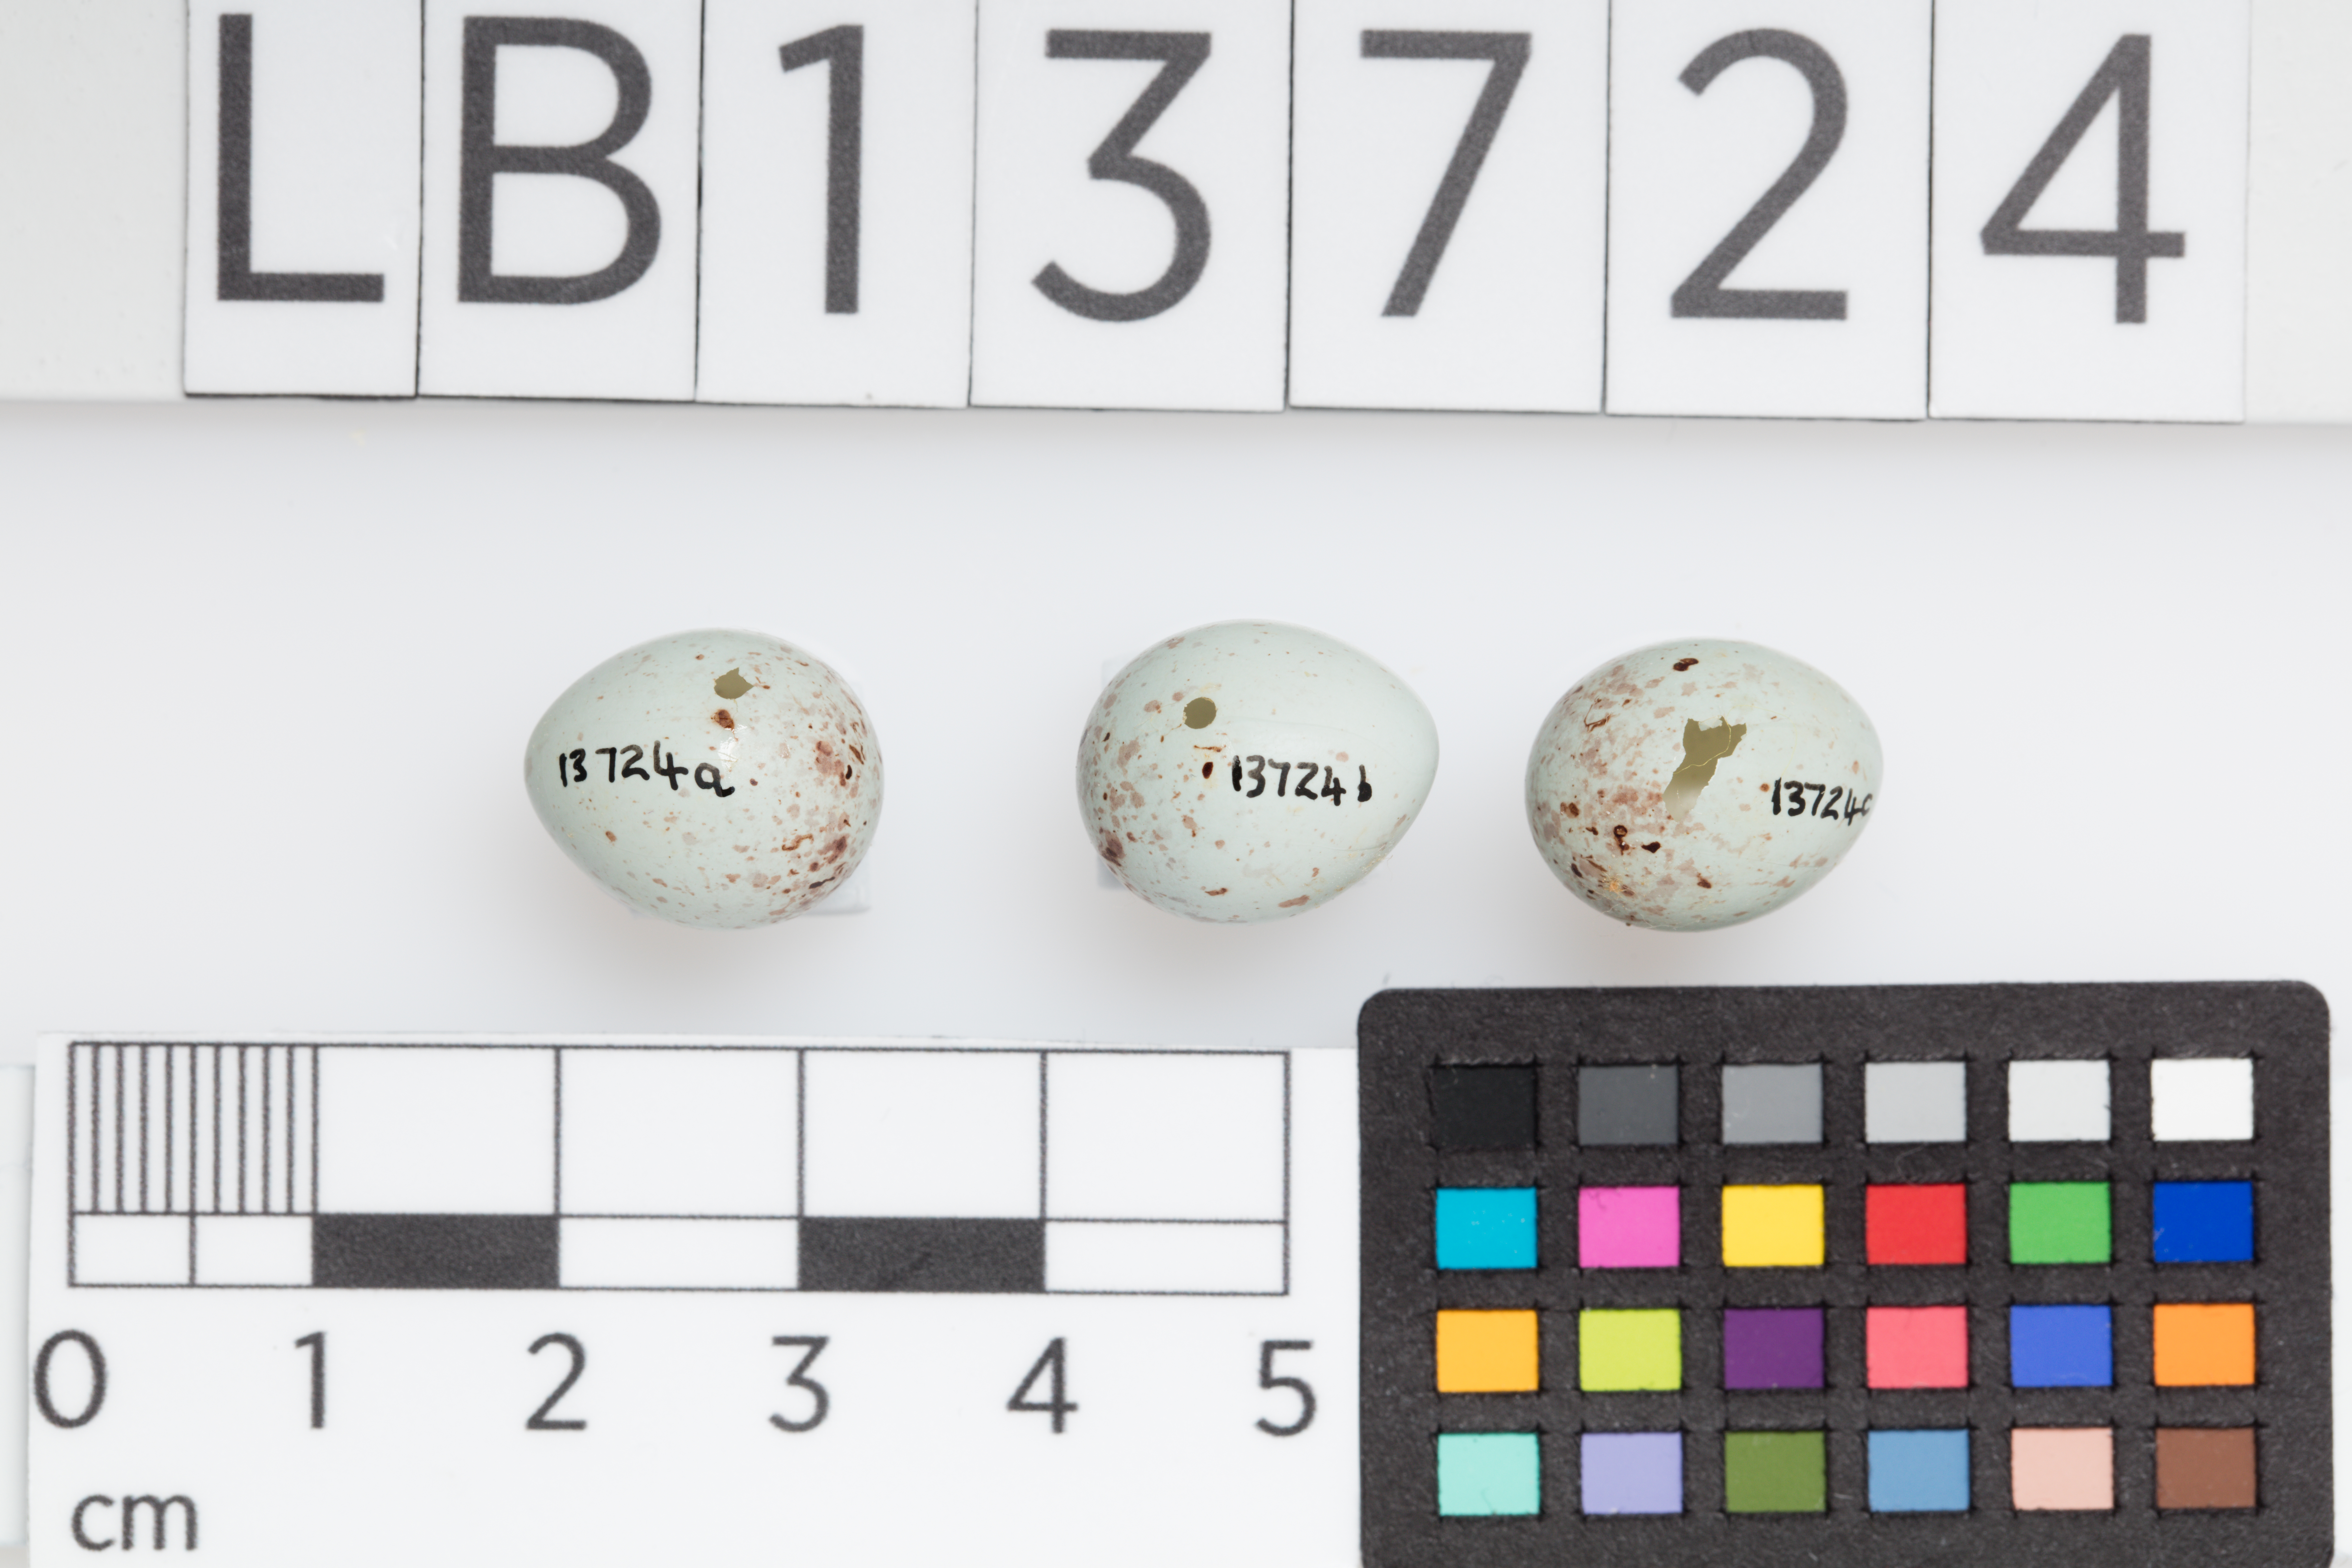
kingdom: Animalia
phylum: Chordata
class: Aves
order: Passeriformes
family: Fringillidae
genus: Acanthis
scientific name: Acanthis flammea
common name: Common redpoll
